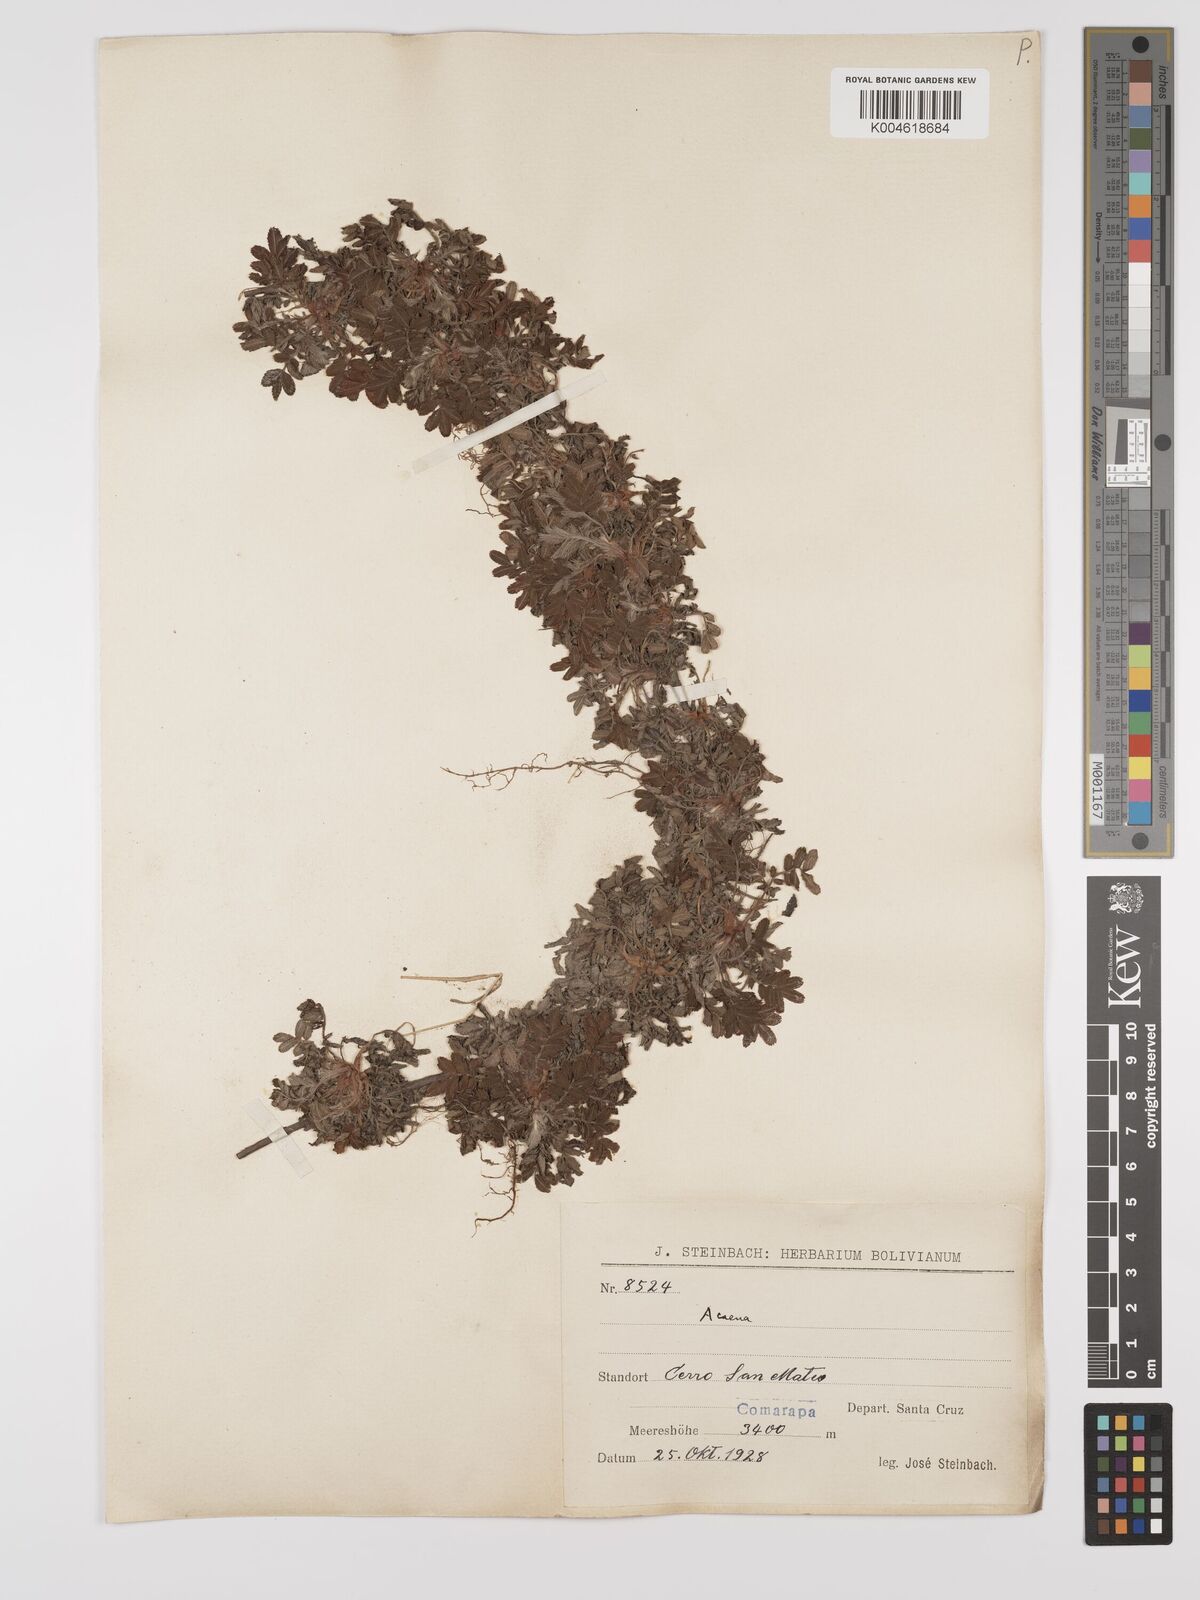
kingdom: Plantae
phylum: Tracheophyta
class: Magnoliopsida
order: Rosales
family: Rosaceae
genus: Acaena
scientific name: Acaena ovalifolia
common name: Two-spined acaena
